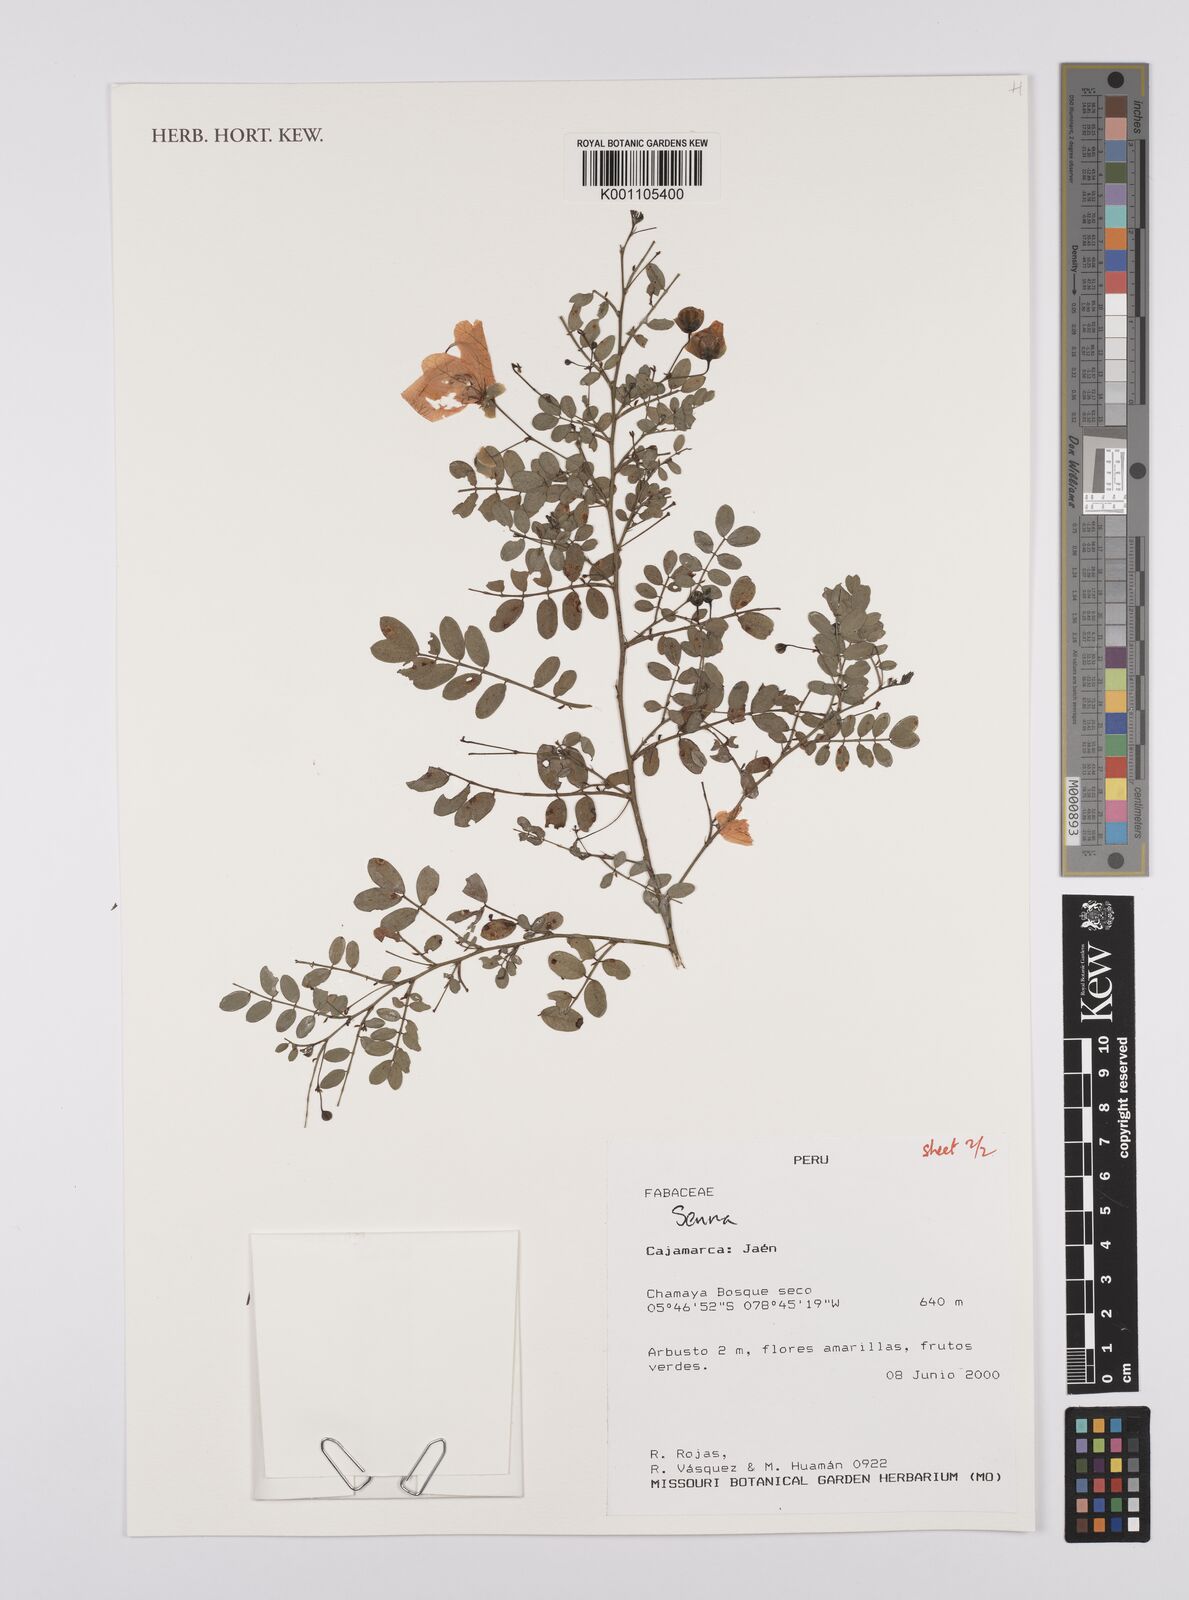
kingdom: Plantae
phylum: Tracheophyta
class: Magnoliopsida
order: Fabales
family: Fabaceae
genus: Senna
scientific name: Senna
